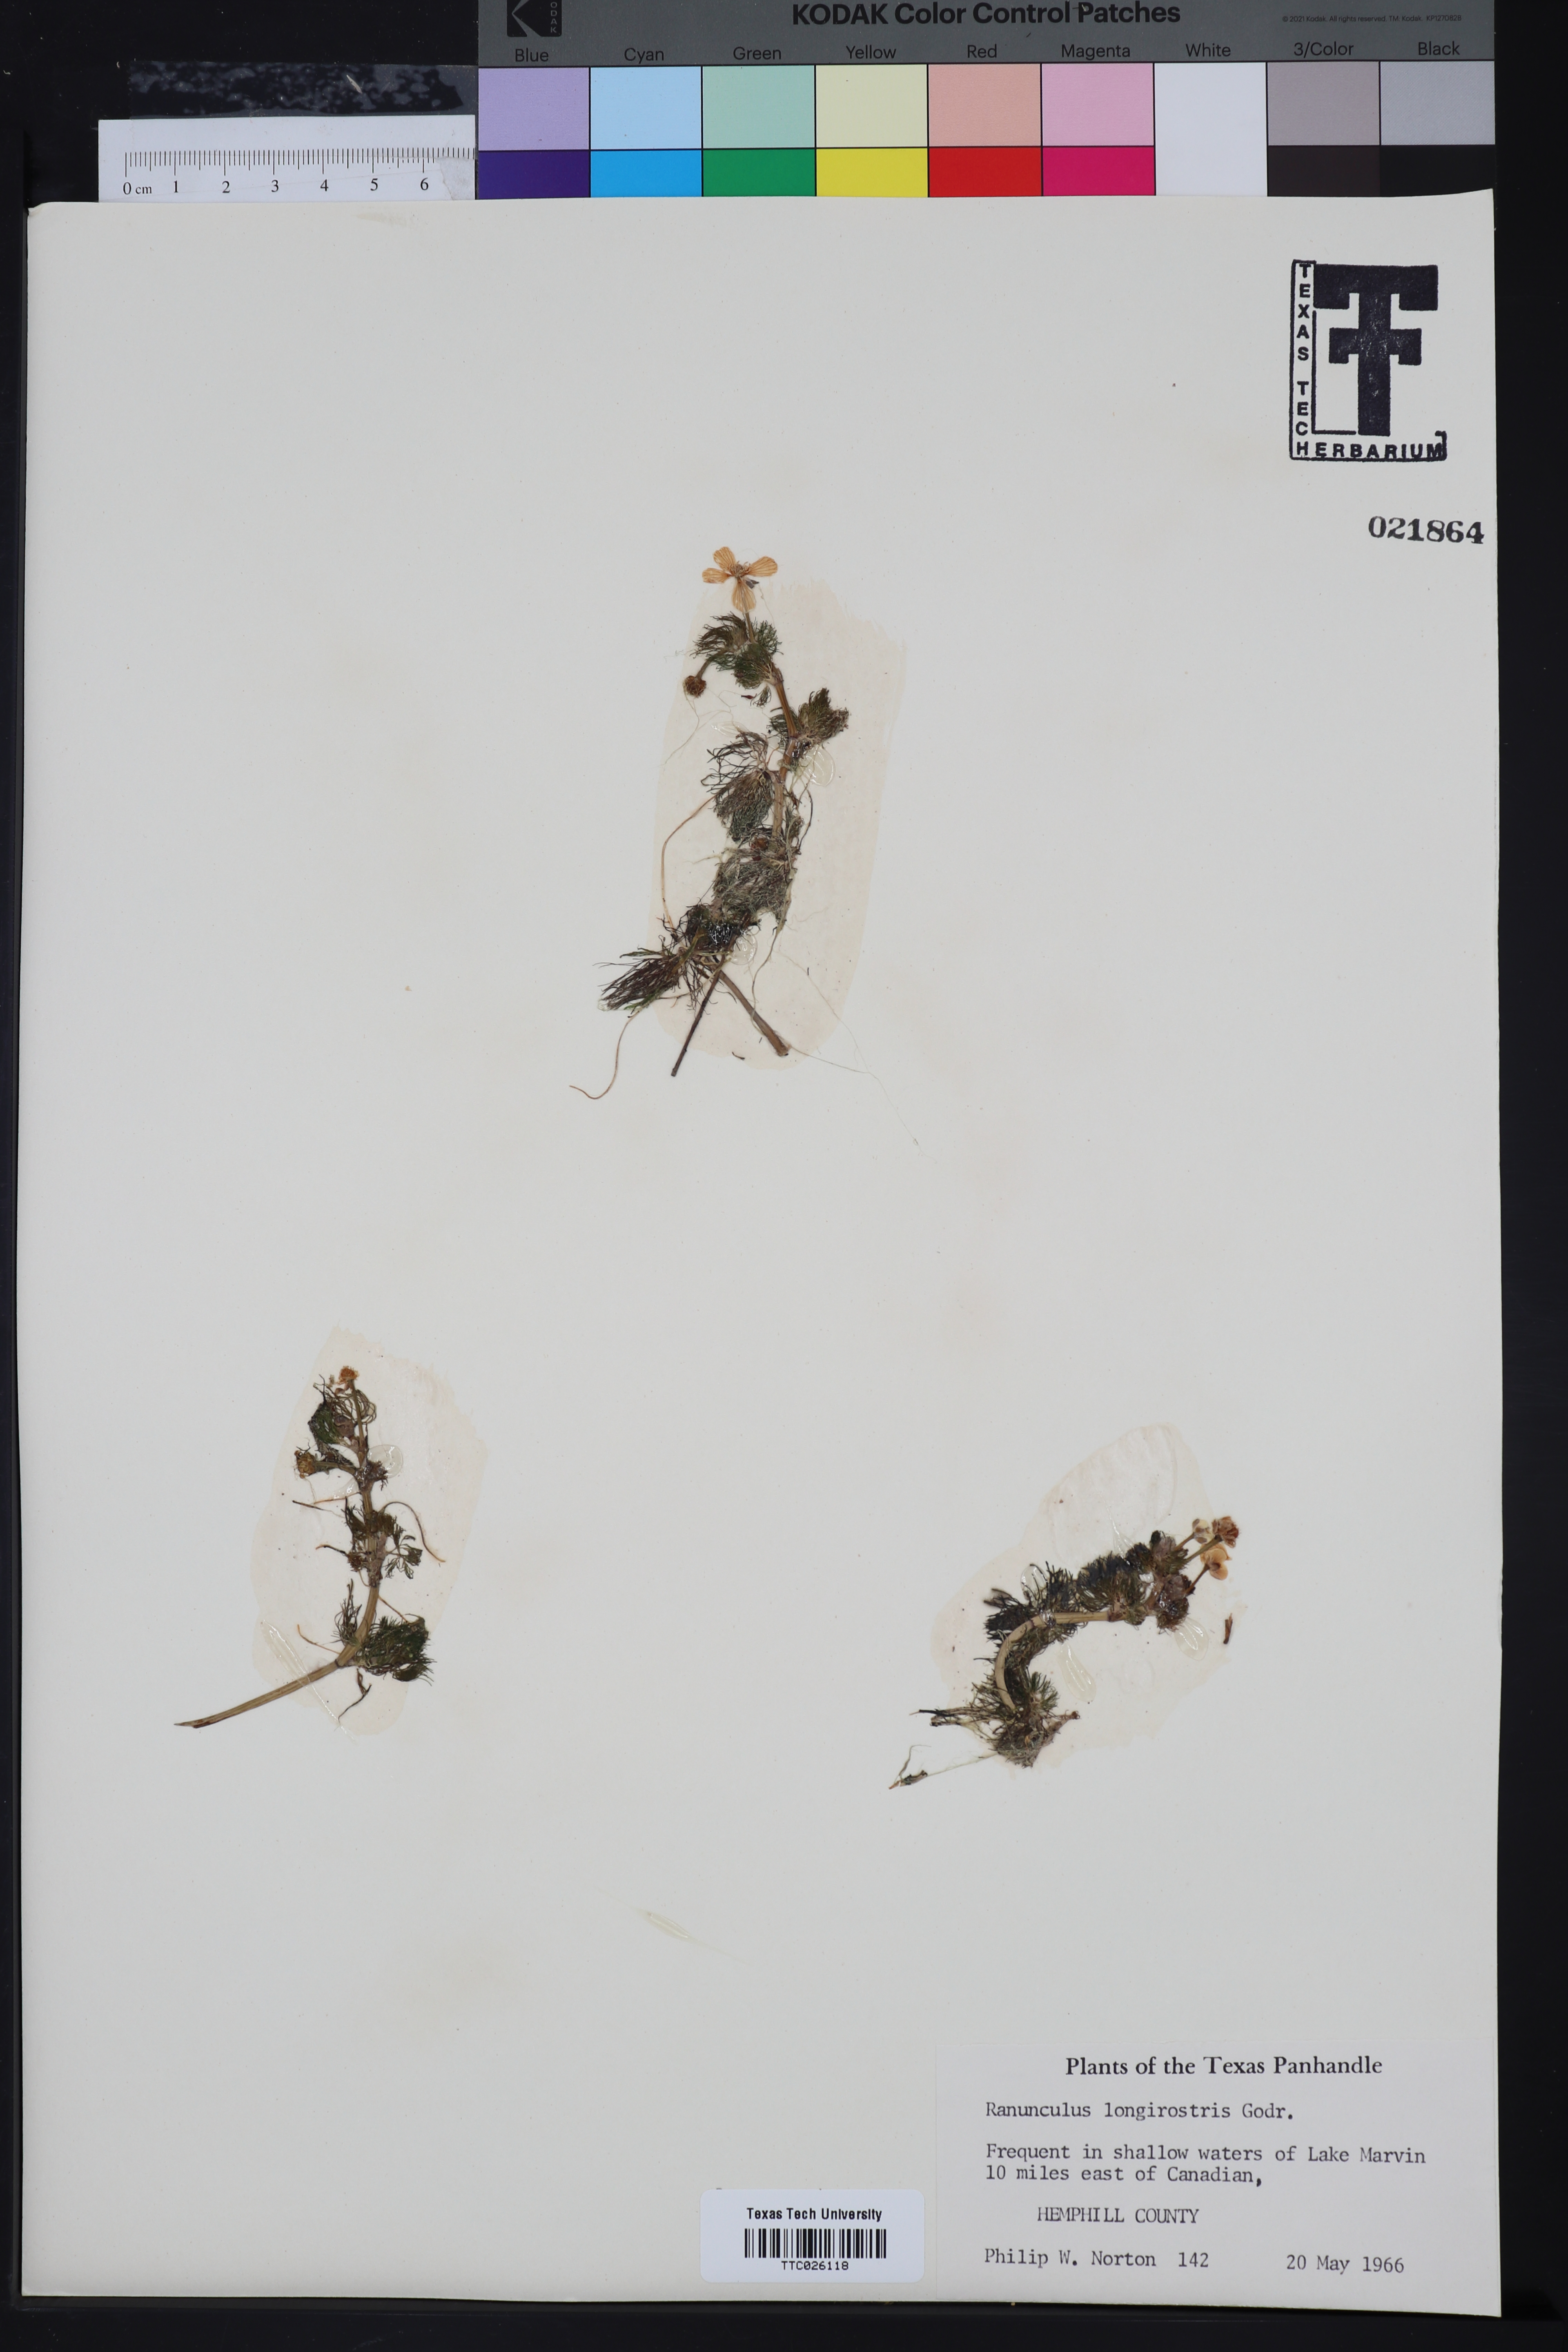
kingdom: Plantae
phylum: Tracheophyta
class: Magnoliopsida
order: Ranunculales
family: Ranunculaceae
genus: Ranunculus
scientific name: Ranunculus longirostris
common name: Curly white water-crowfoot
